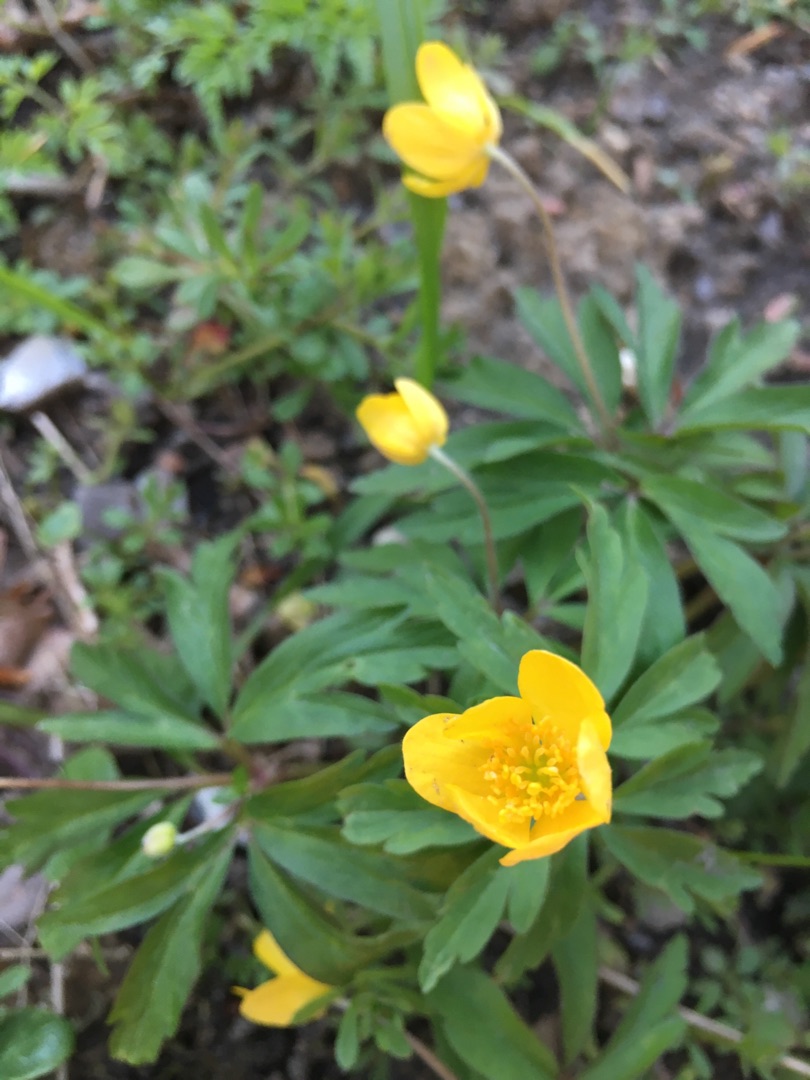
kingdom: Plantae
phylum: Tracheophyta
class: Magnoliopsida
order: Ranunculales
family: Ranunculaceae
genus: Anemone
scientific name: Anemone ranunculoides
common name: Gul anemone
